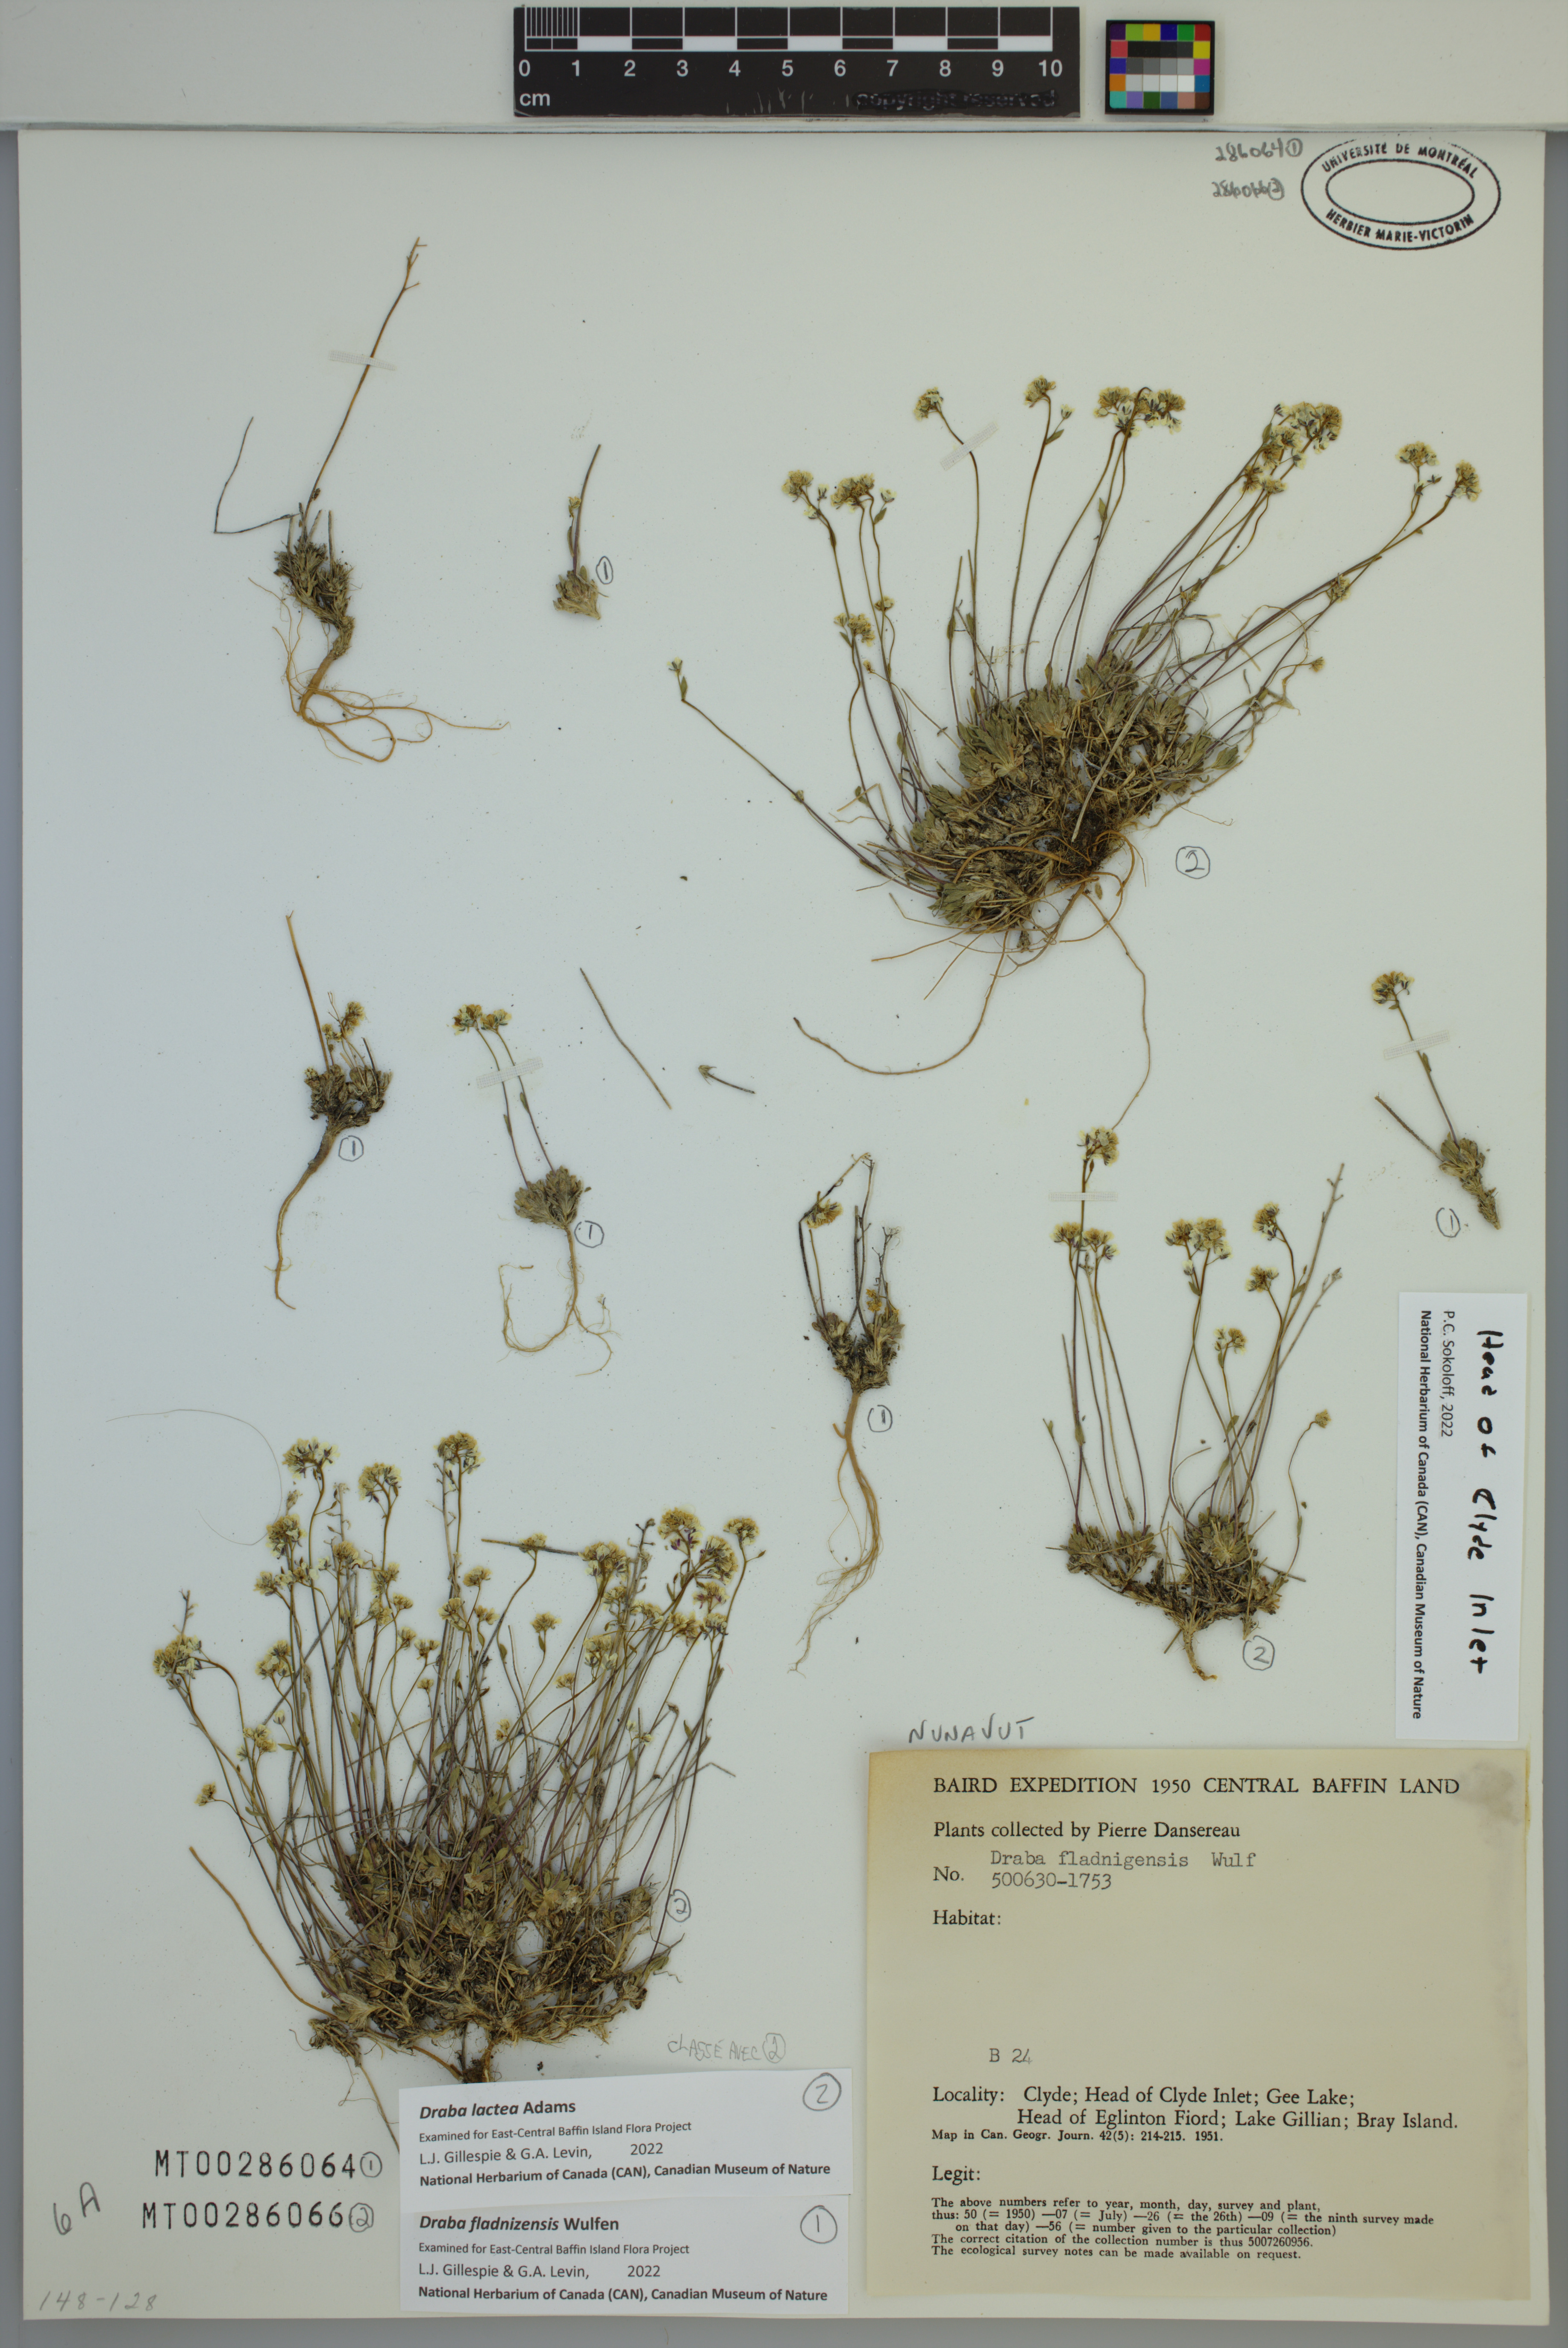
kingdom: Plantae
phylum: Tracheophyta
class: Magnoliopsida
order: Brassicales
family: Brassicaceae
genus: Draba
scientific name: Draba lactea
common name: Milky draba
